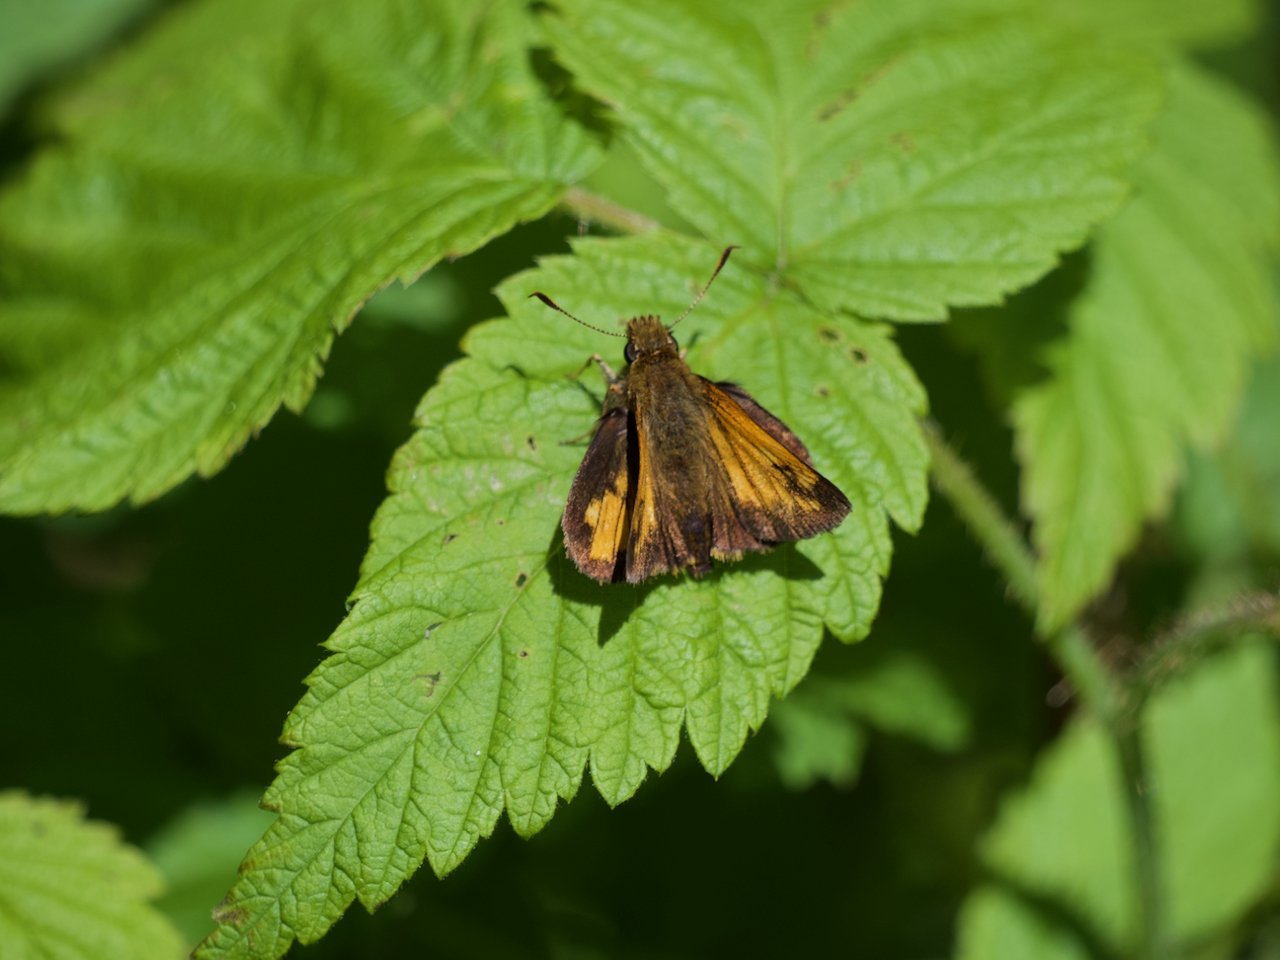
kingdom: Animalia
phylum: Arthropoda
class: Insecta
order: Lepidoptera
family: Hesperiidae
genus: Lon
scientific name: Lon hobomok
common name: Hobomok Skipper
